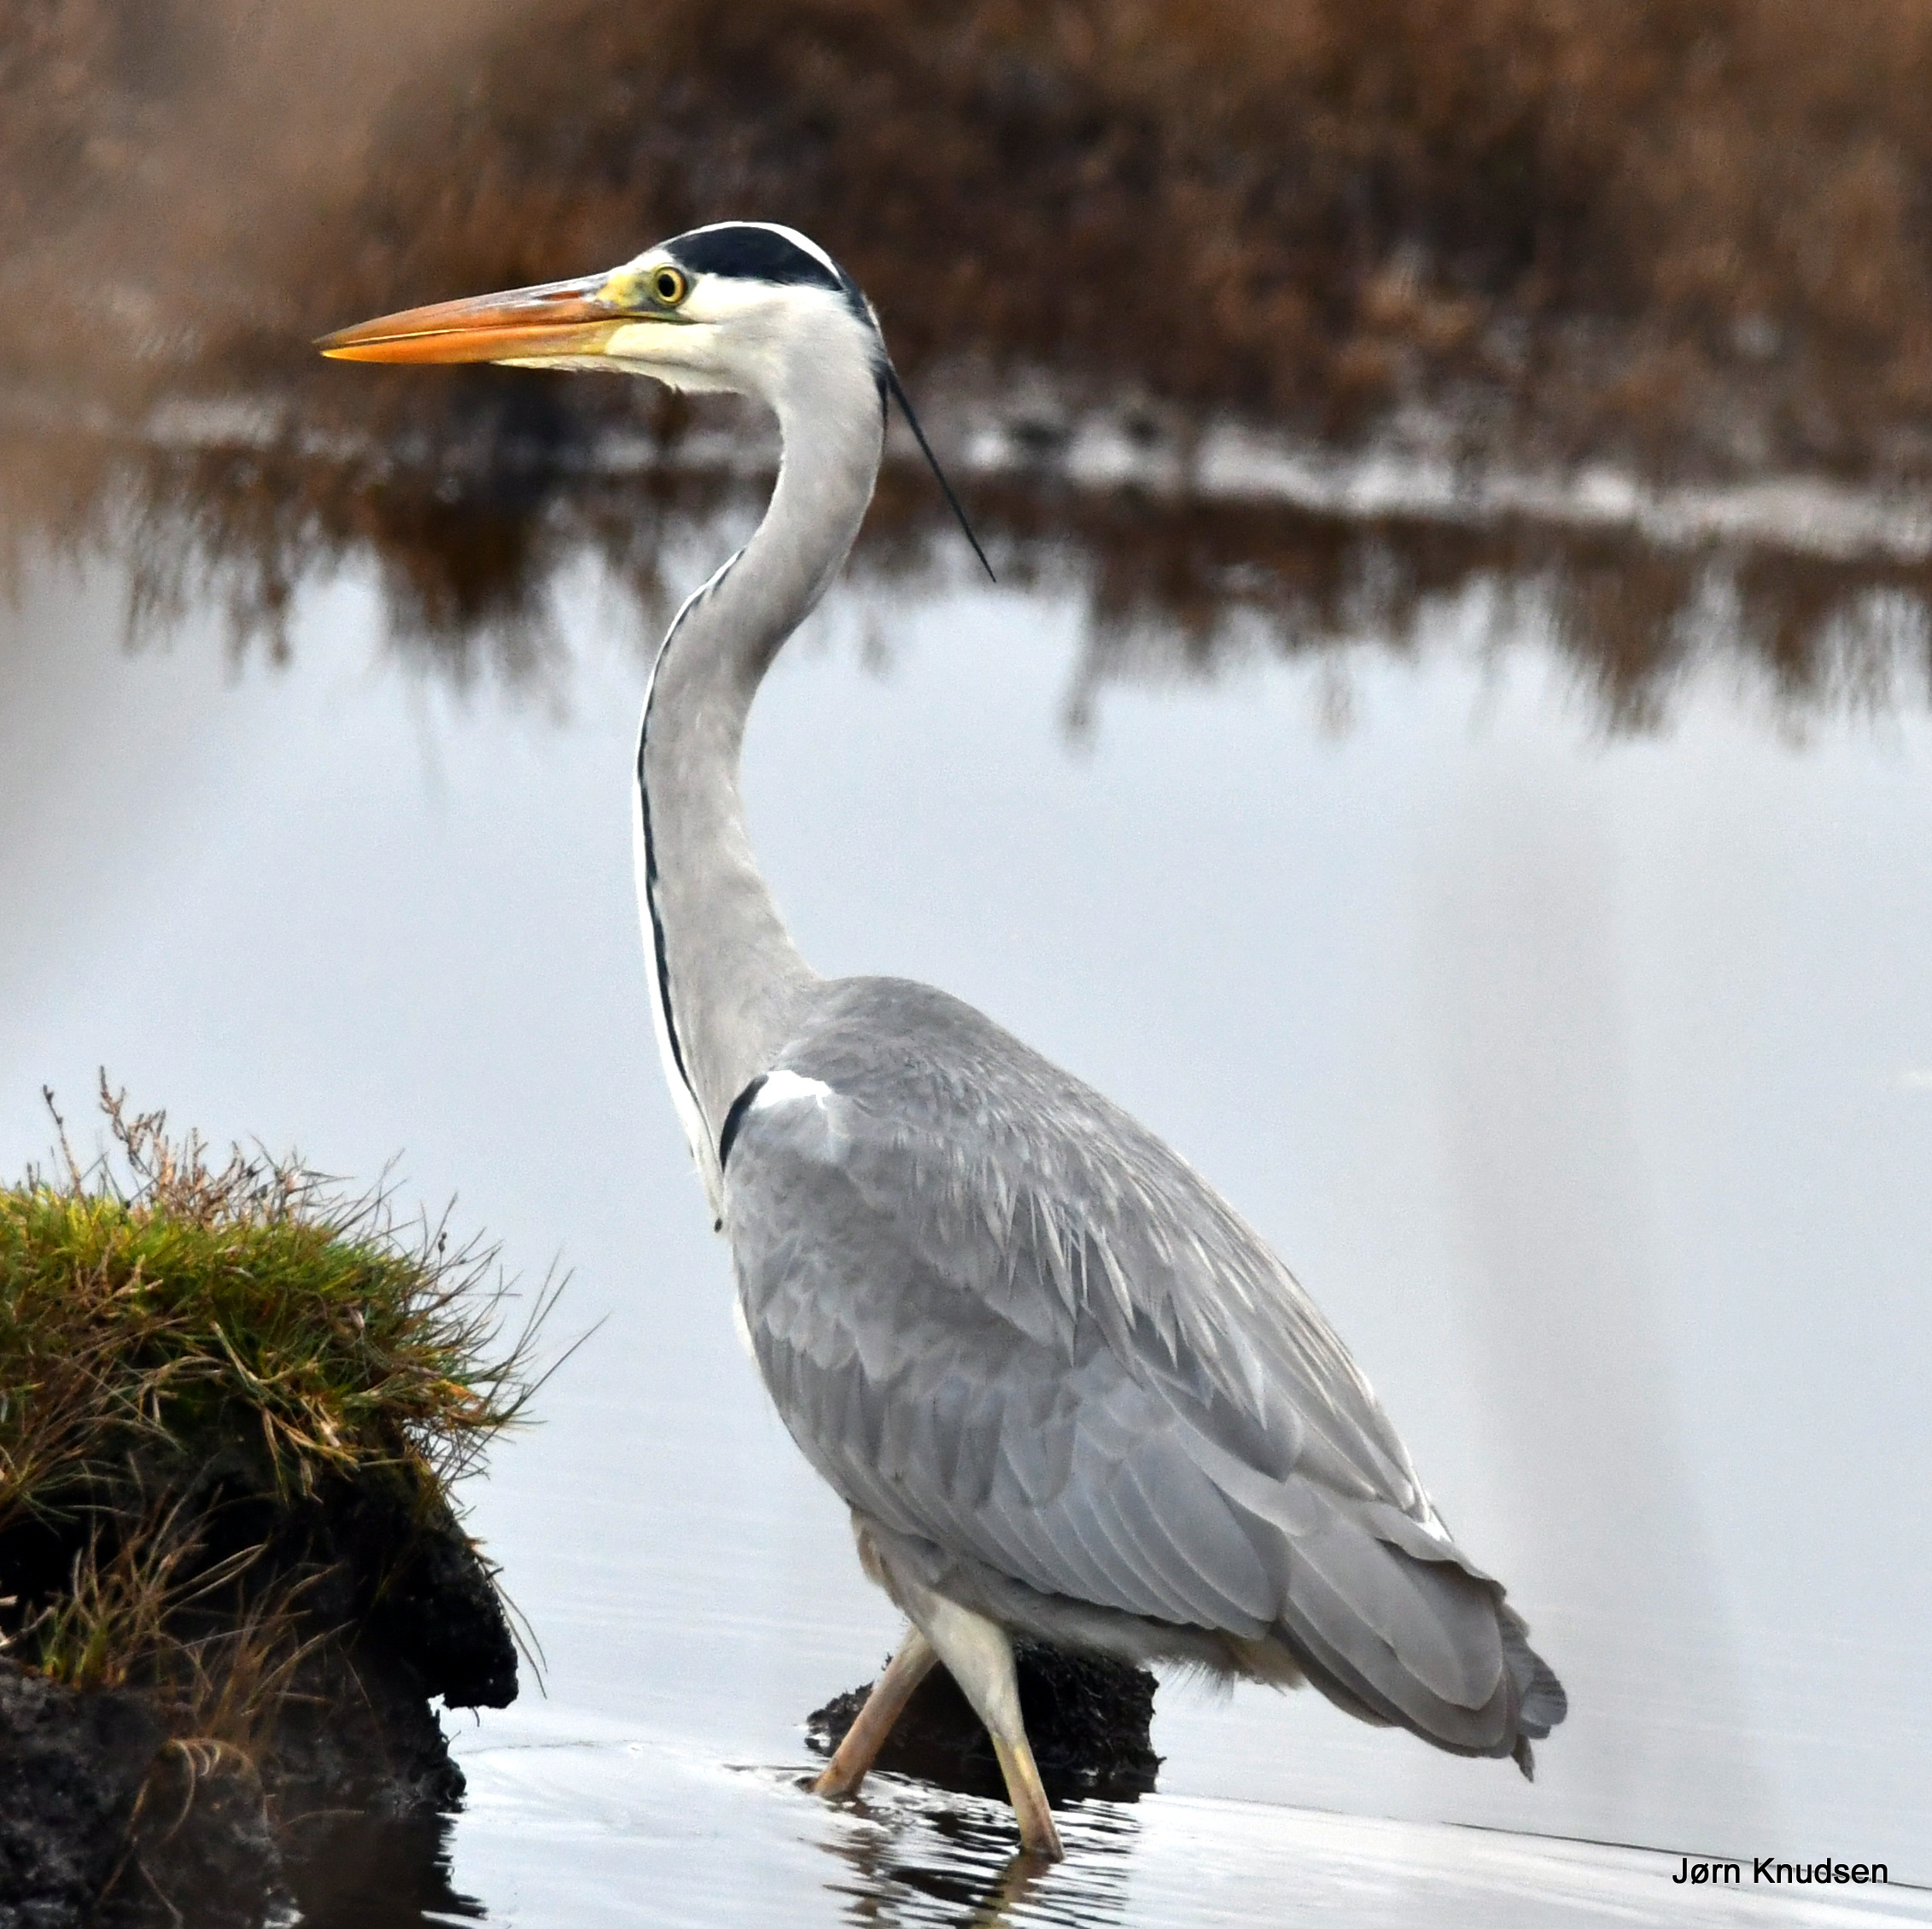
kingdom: Animalia
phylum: Chordata
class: Aves
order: Pelecaniformes
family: Ardeidae
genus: Ardea
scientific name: Ardea cinerea
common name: Fiskehejre
